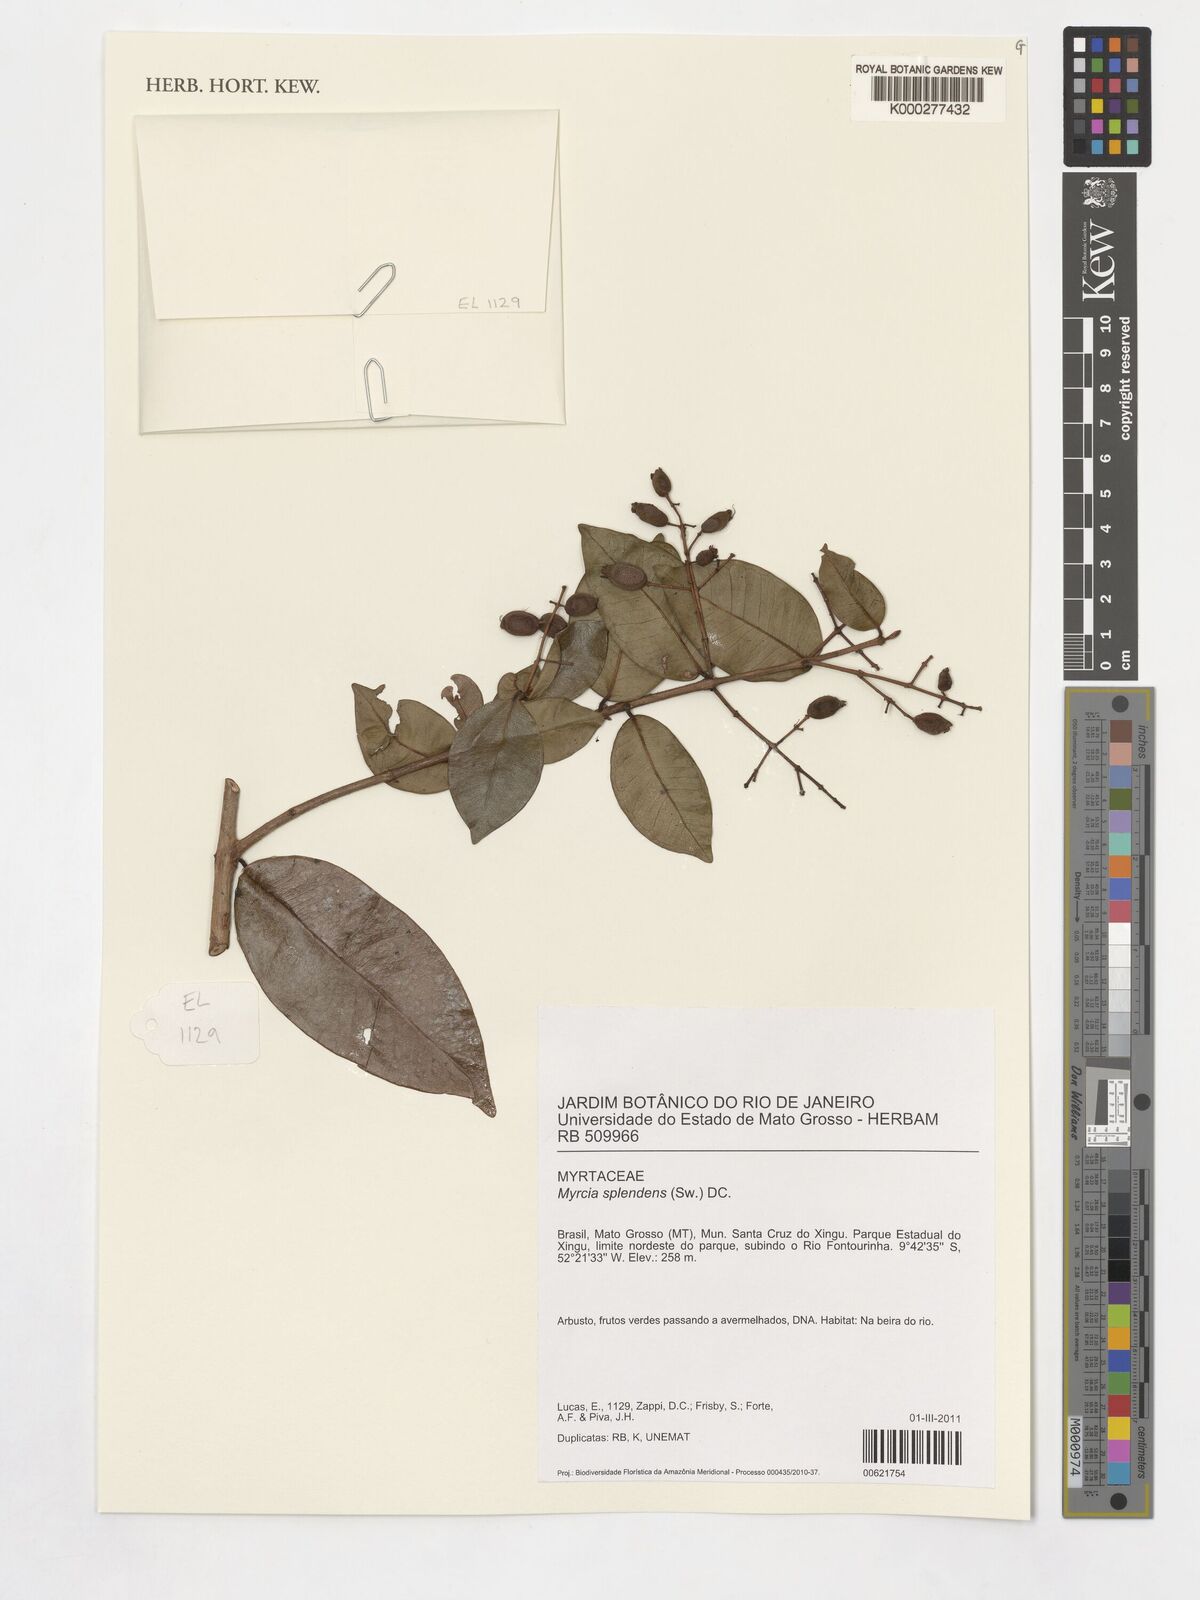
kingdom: Plantae
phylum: Tracheophyta
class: Magnoliopsida
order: Myrtales
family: Myrtaceae
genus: Myrcia
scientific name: Myrcia splendens
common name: Surinam cherry
